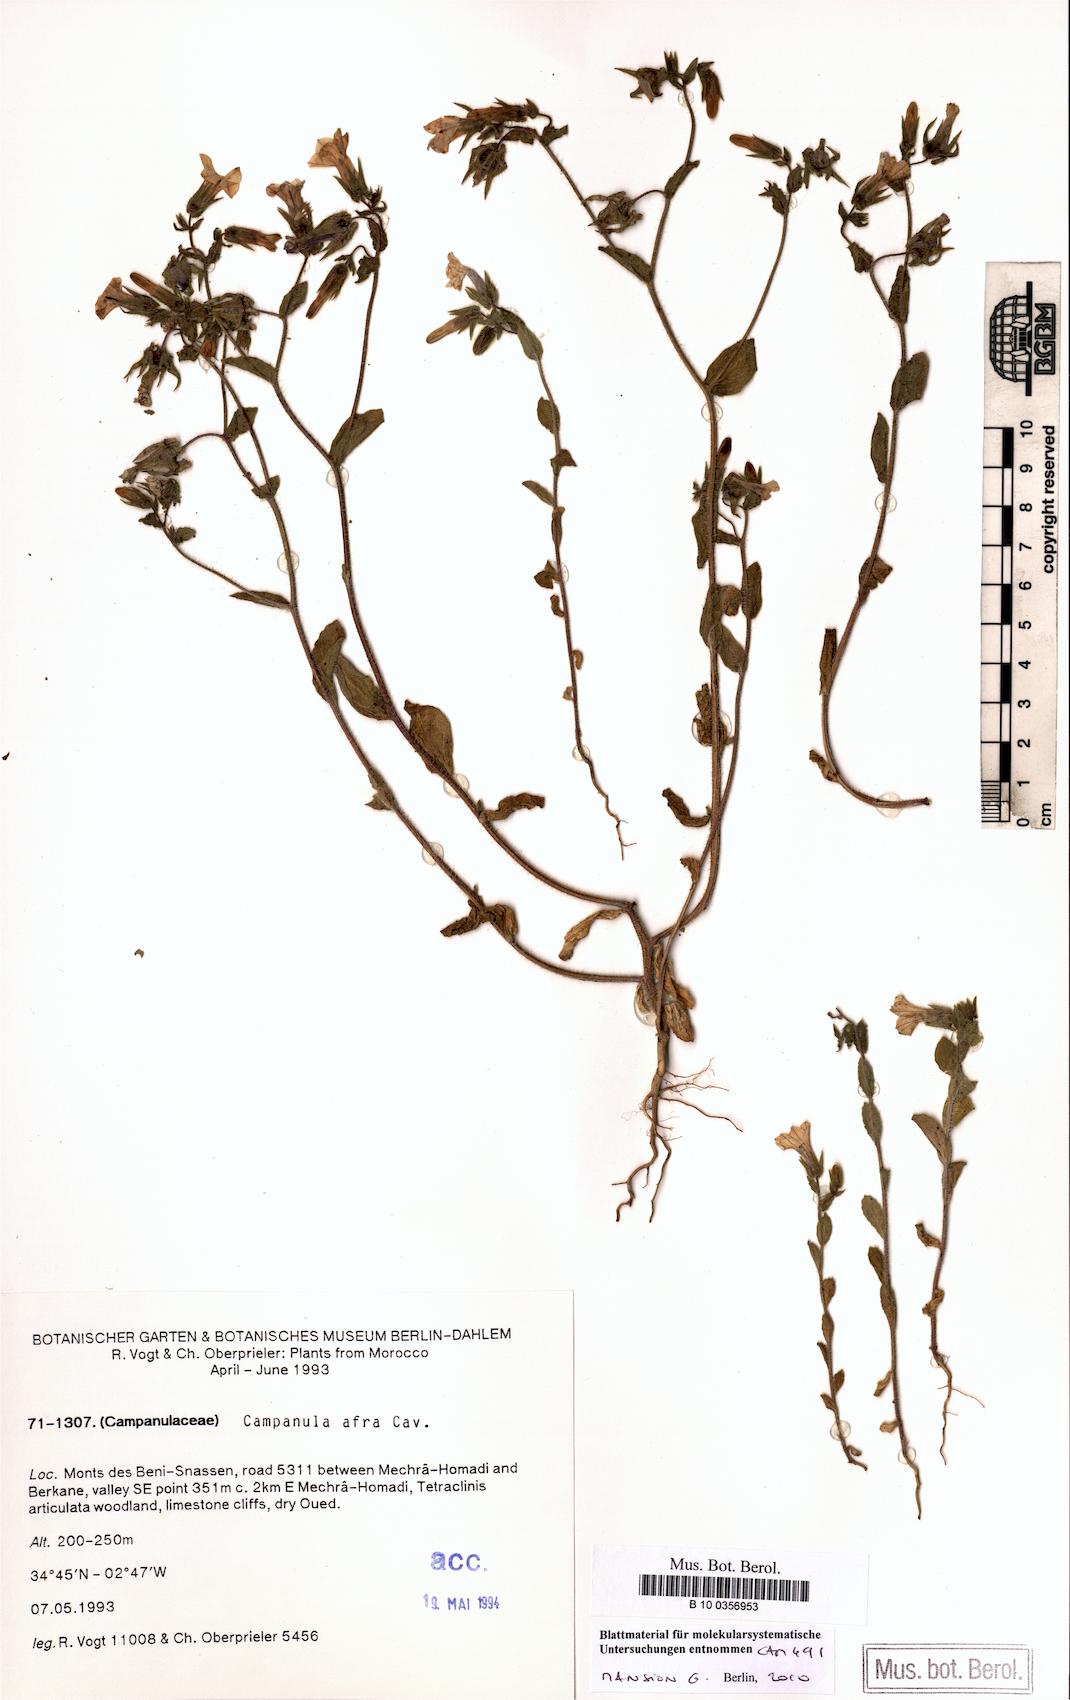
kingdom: Plantae
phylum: Tracheophyta
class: Magnoliopsida
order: Asterales
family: Campanulaceae
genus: Campanula
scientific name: Campanula afra
